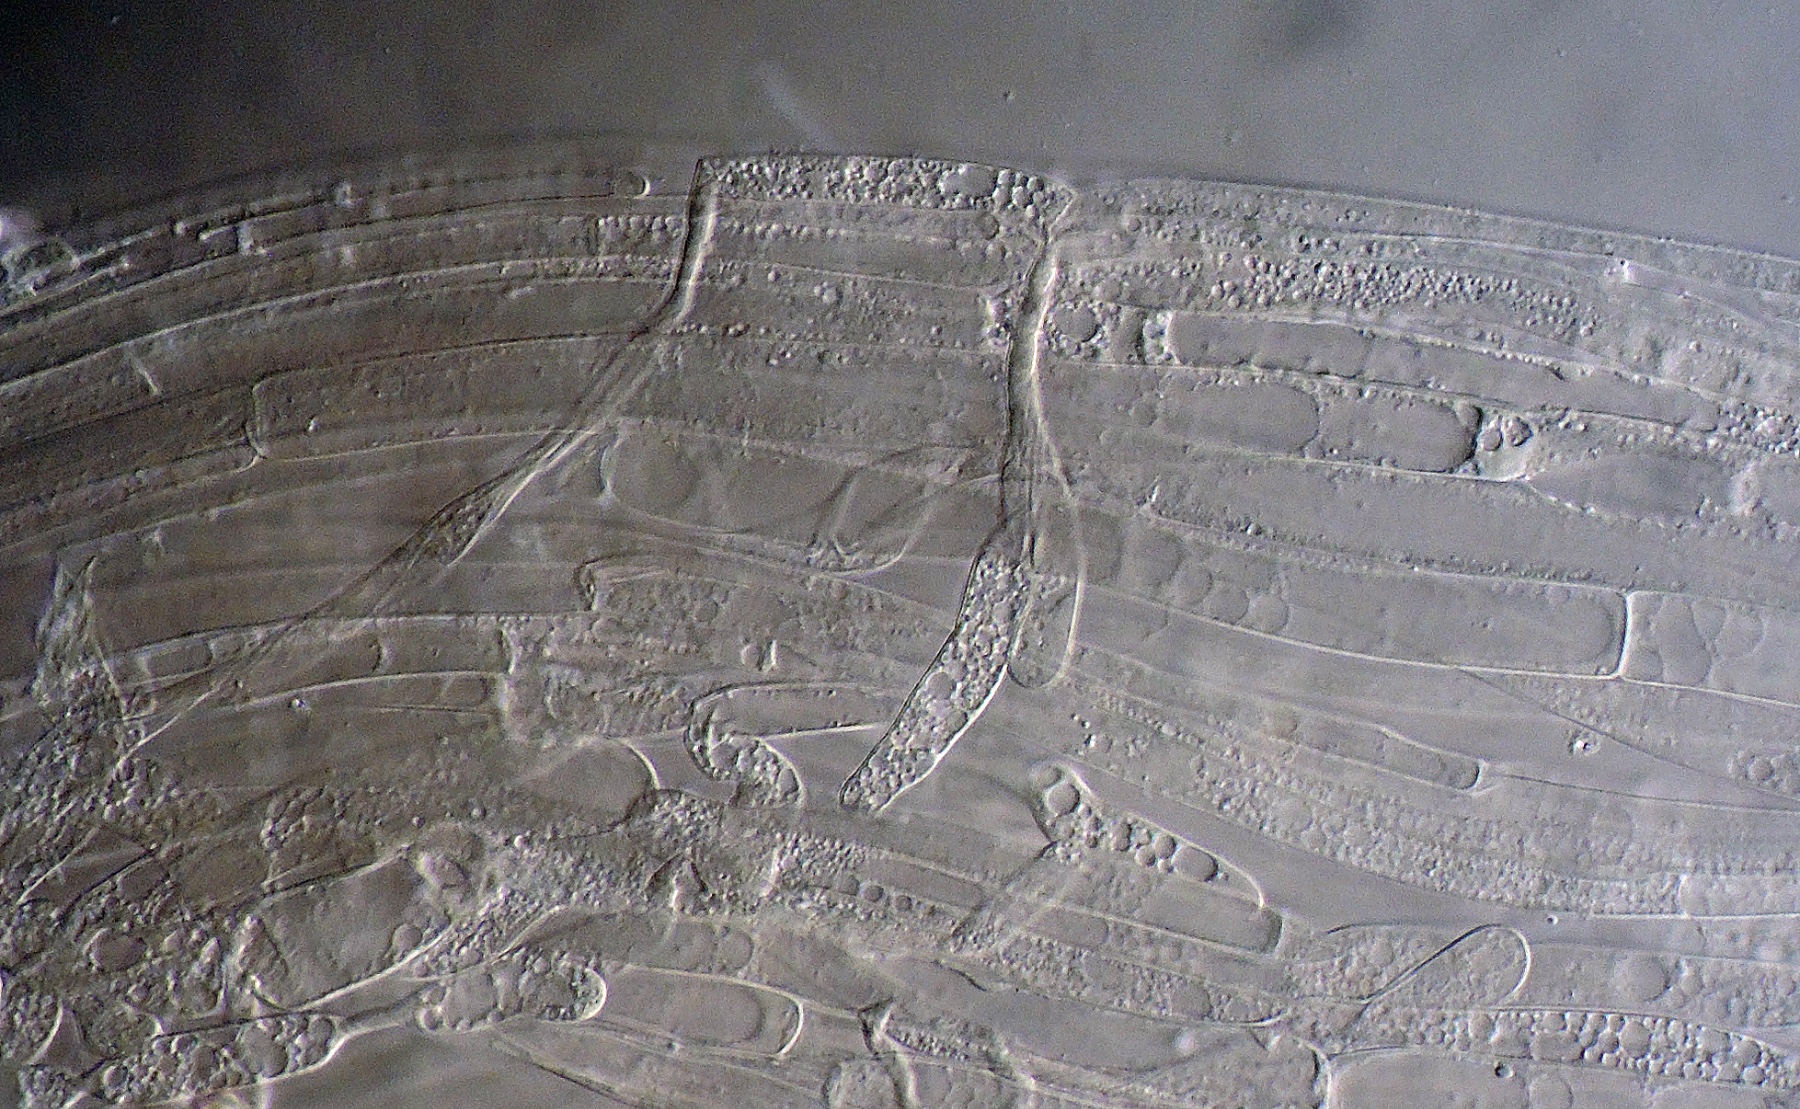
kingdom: Fungi
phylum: Basidiomycota
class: Agaricomycetes
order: Agaricales
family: Entolomataceae
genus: Entoloma
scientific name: Entoloma
